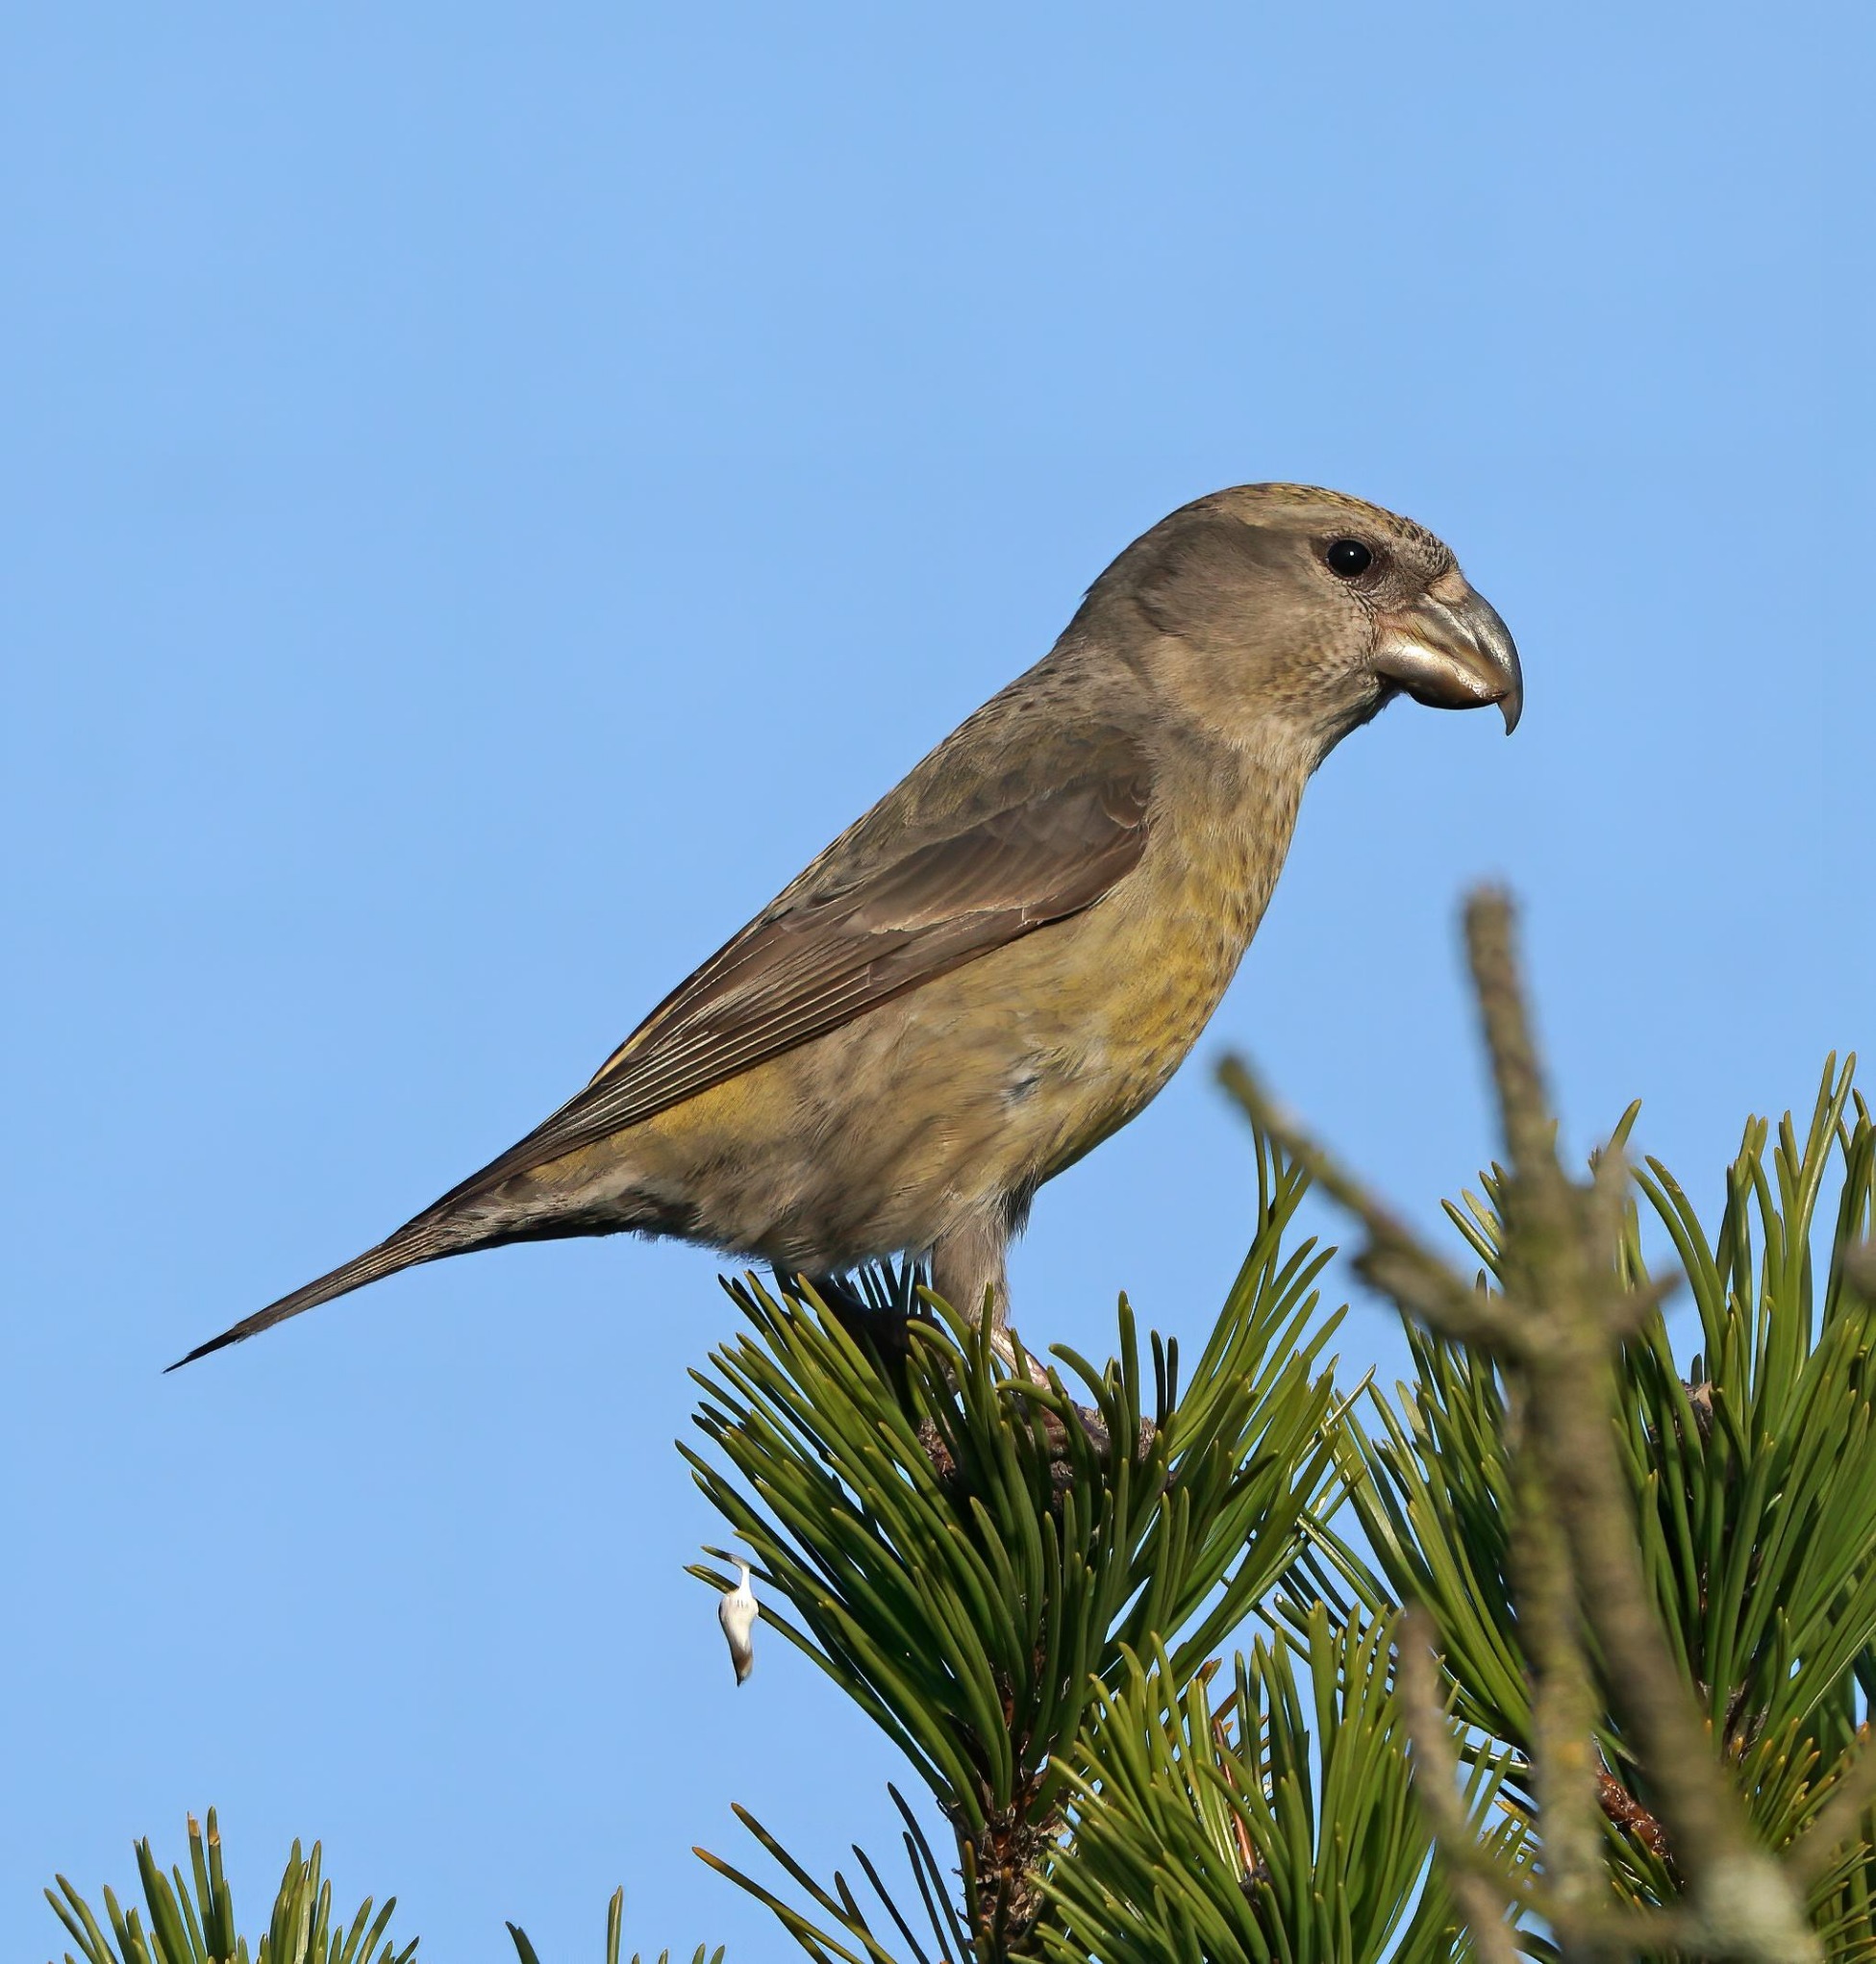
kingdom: Animalia
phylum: Chordata
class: Aves
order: Passeriformes
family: Fringillidae
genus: Loxia
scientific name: Loxia pytyopsittacus
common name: Stor korsnæb
